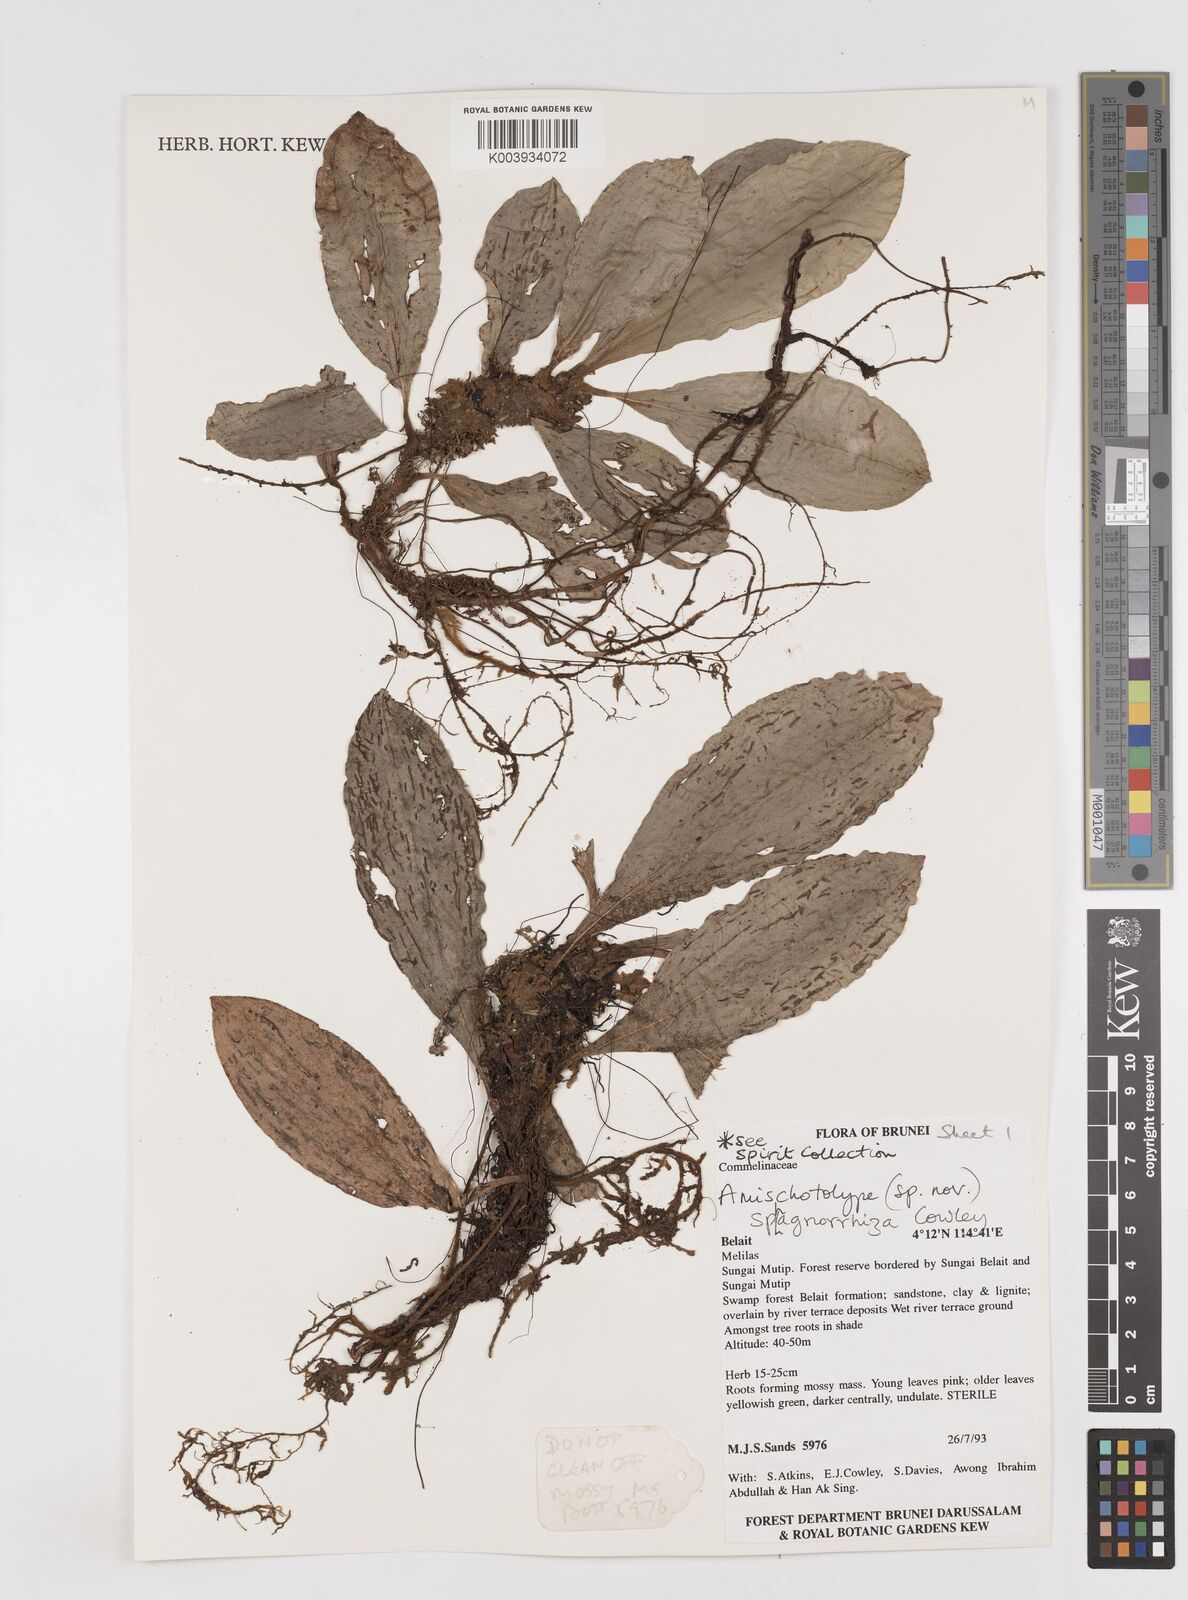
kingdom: Plantae
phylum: Tracheophyta
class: Liliopsida
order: Commelinales
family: Commelinaceae
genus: Amischotolype
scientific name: Amischotolype sphagnorrhiza
